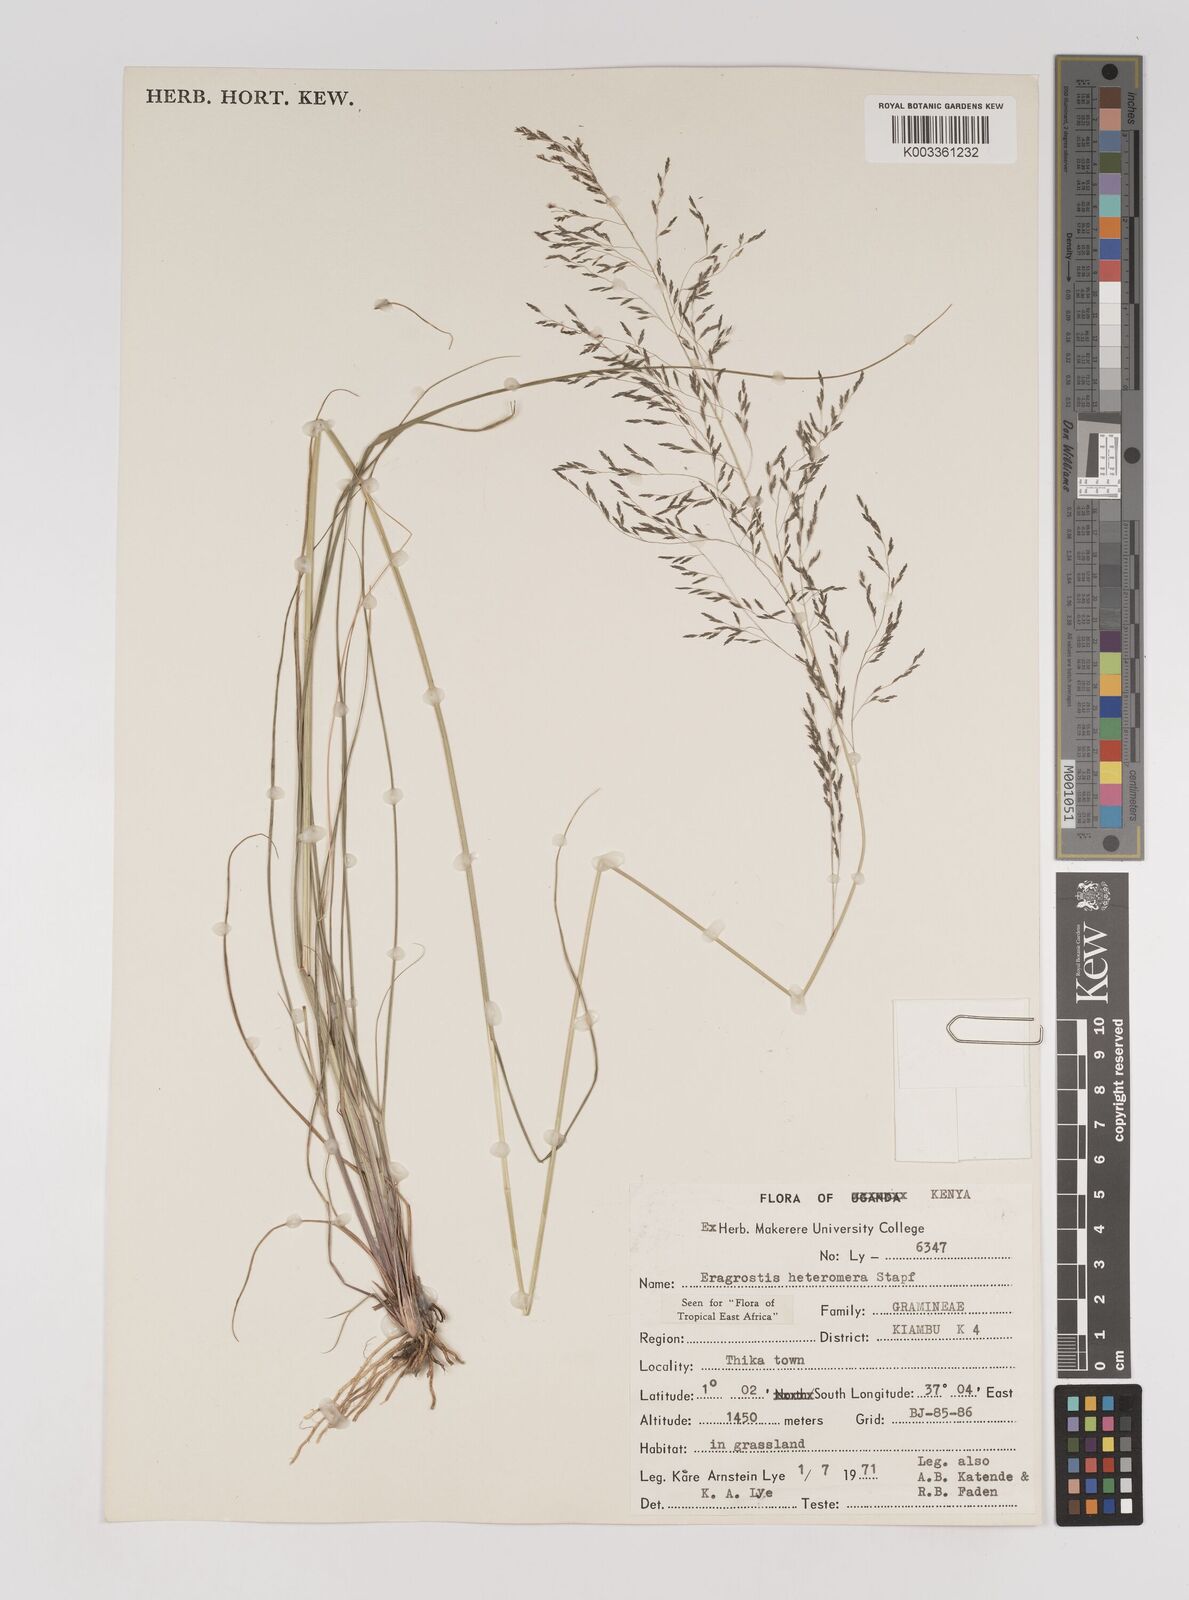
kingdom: Plantae
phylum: Tracheophyta
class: Liliopsida
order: Poales
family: Poaceae
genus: Eragrostis
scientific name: Eragrostis heteromera
